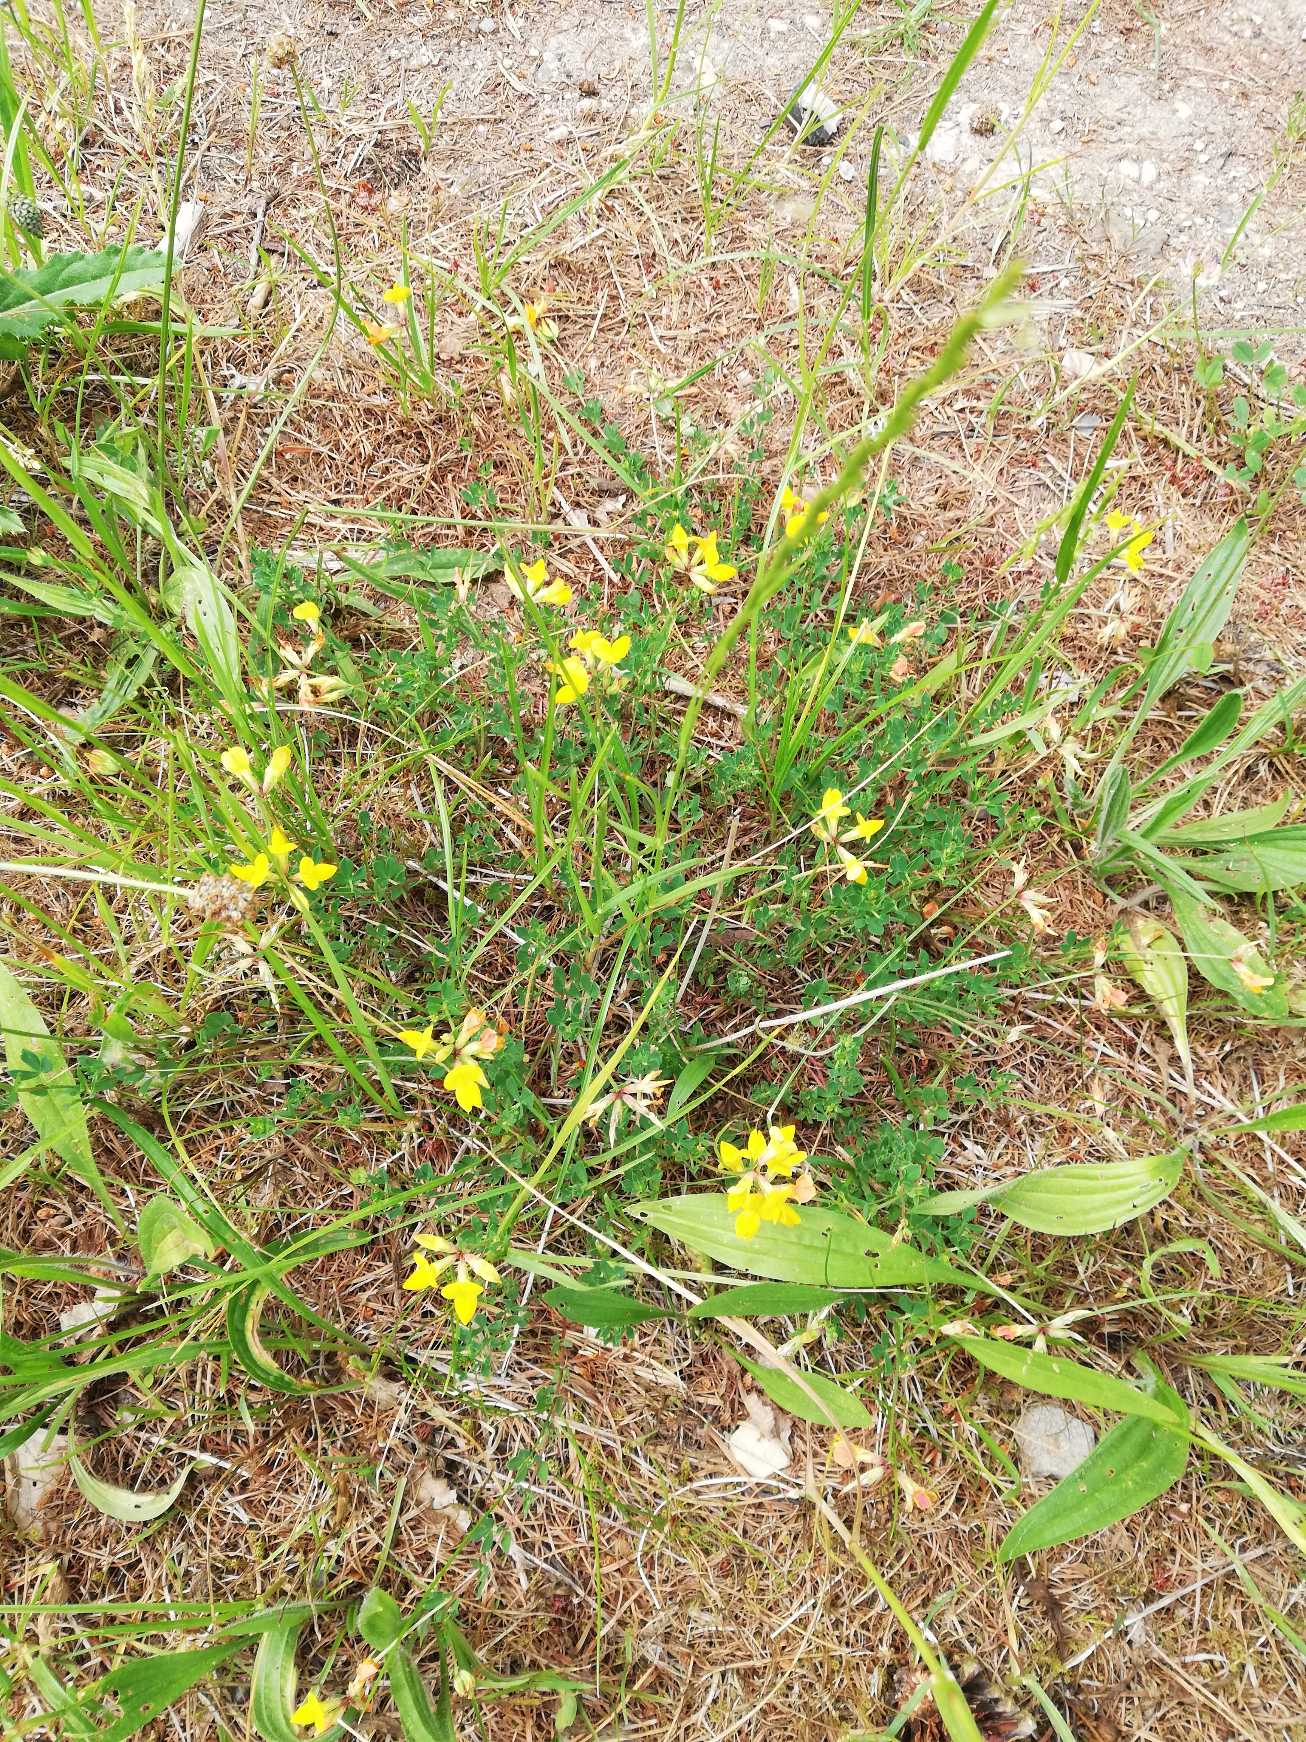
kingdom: Plantae
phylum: Tracheophyta
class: Magnoliopsida
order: Fabales
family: Fabaceae
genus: Lotus
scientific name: Lotus corniculatus
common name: Almindelig kællingetand
